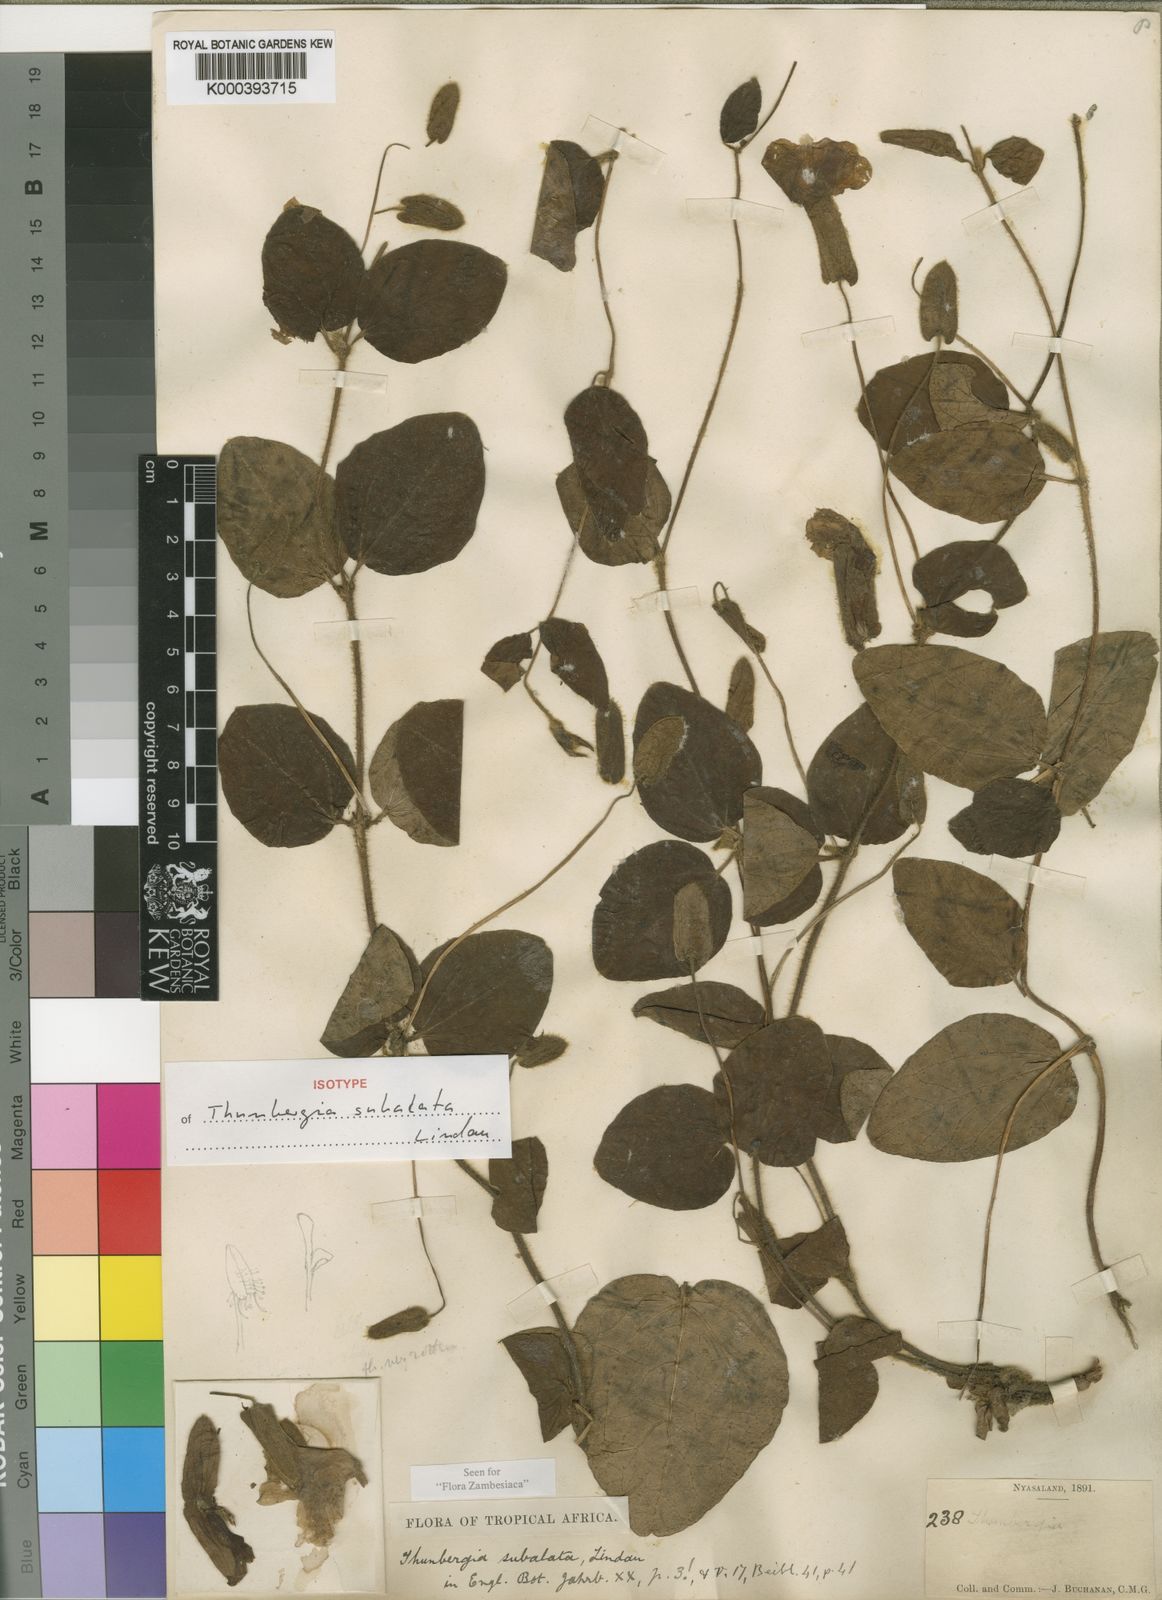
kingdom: Plantae
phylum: Tracheophyta
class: Magnoliopsida
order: Lamiales
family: Acanthaceae
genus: Thunbergia
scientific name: Thunbergia subalata
